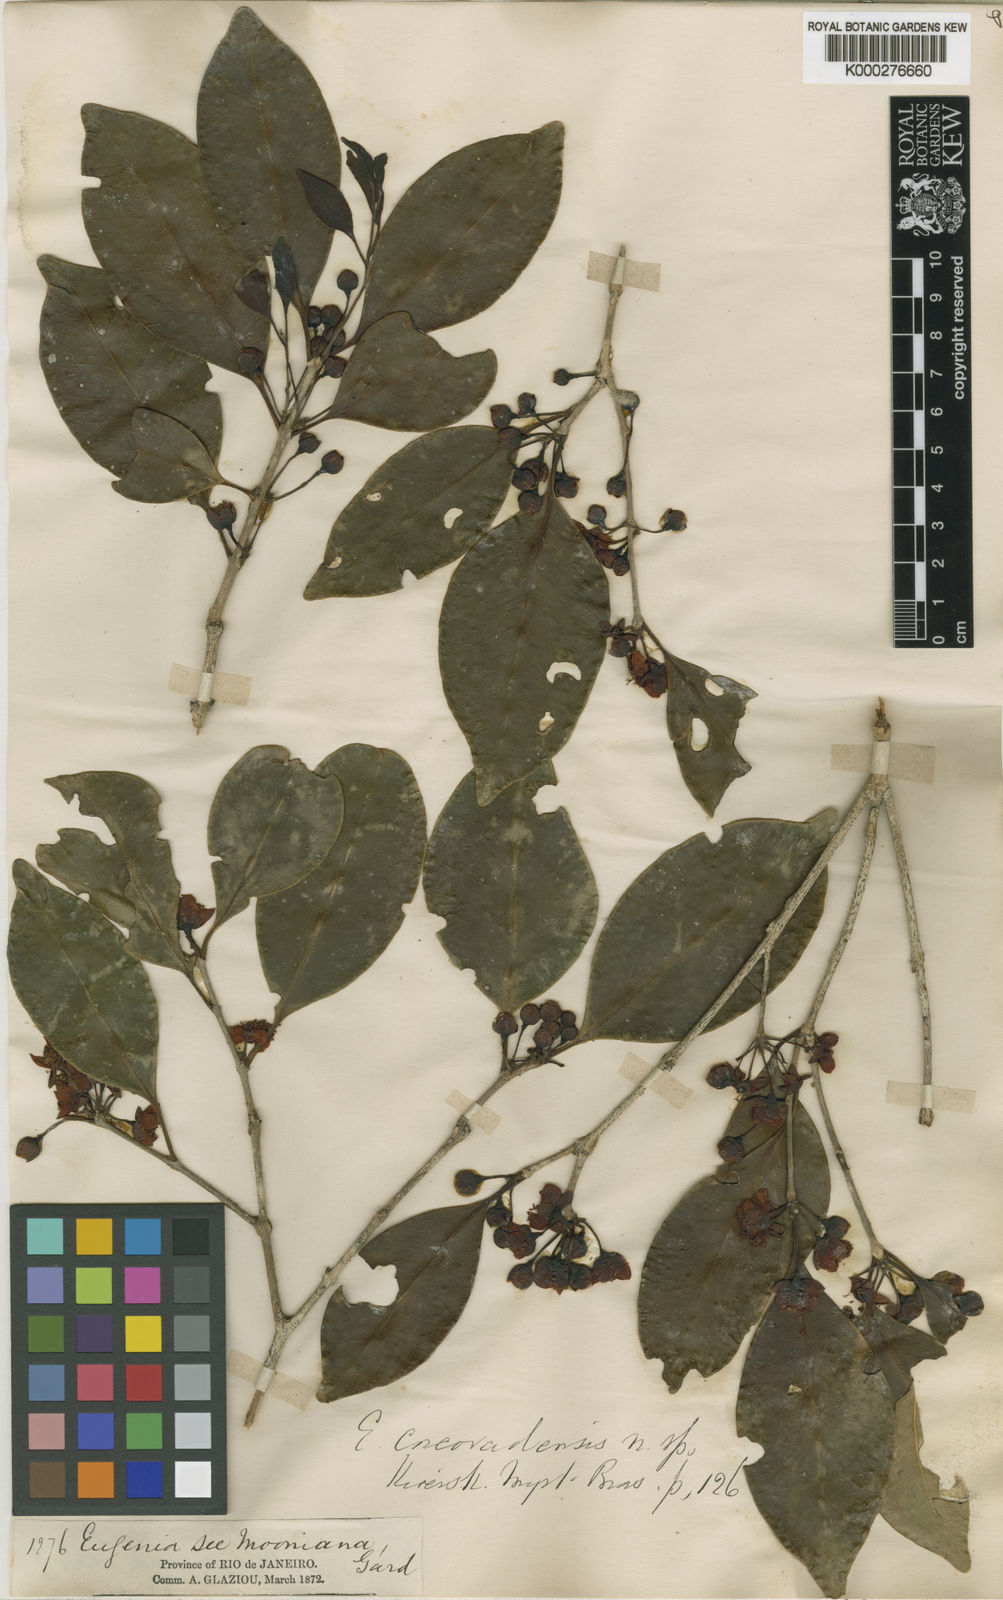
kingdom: Plantae
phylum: Tracheophyta
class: Magnoliopsida
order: Myrtales
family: Myrtaceae
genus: Eugenia
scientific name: Eugenia corcovadensis
